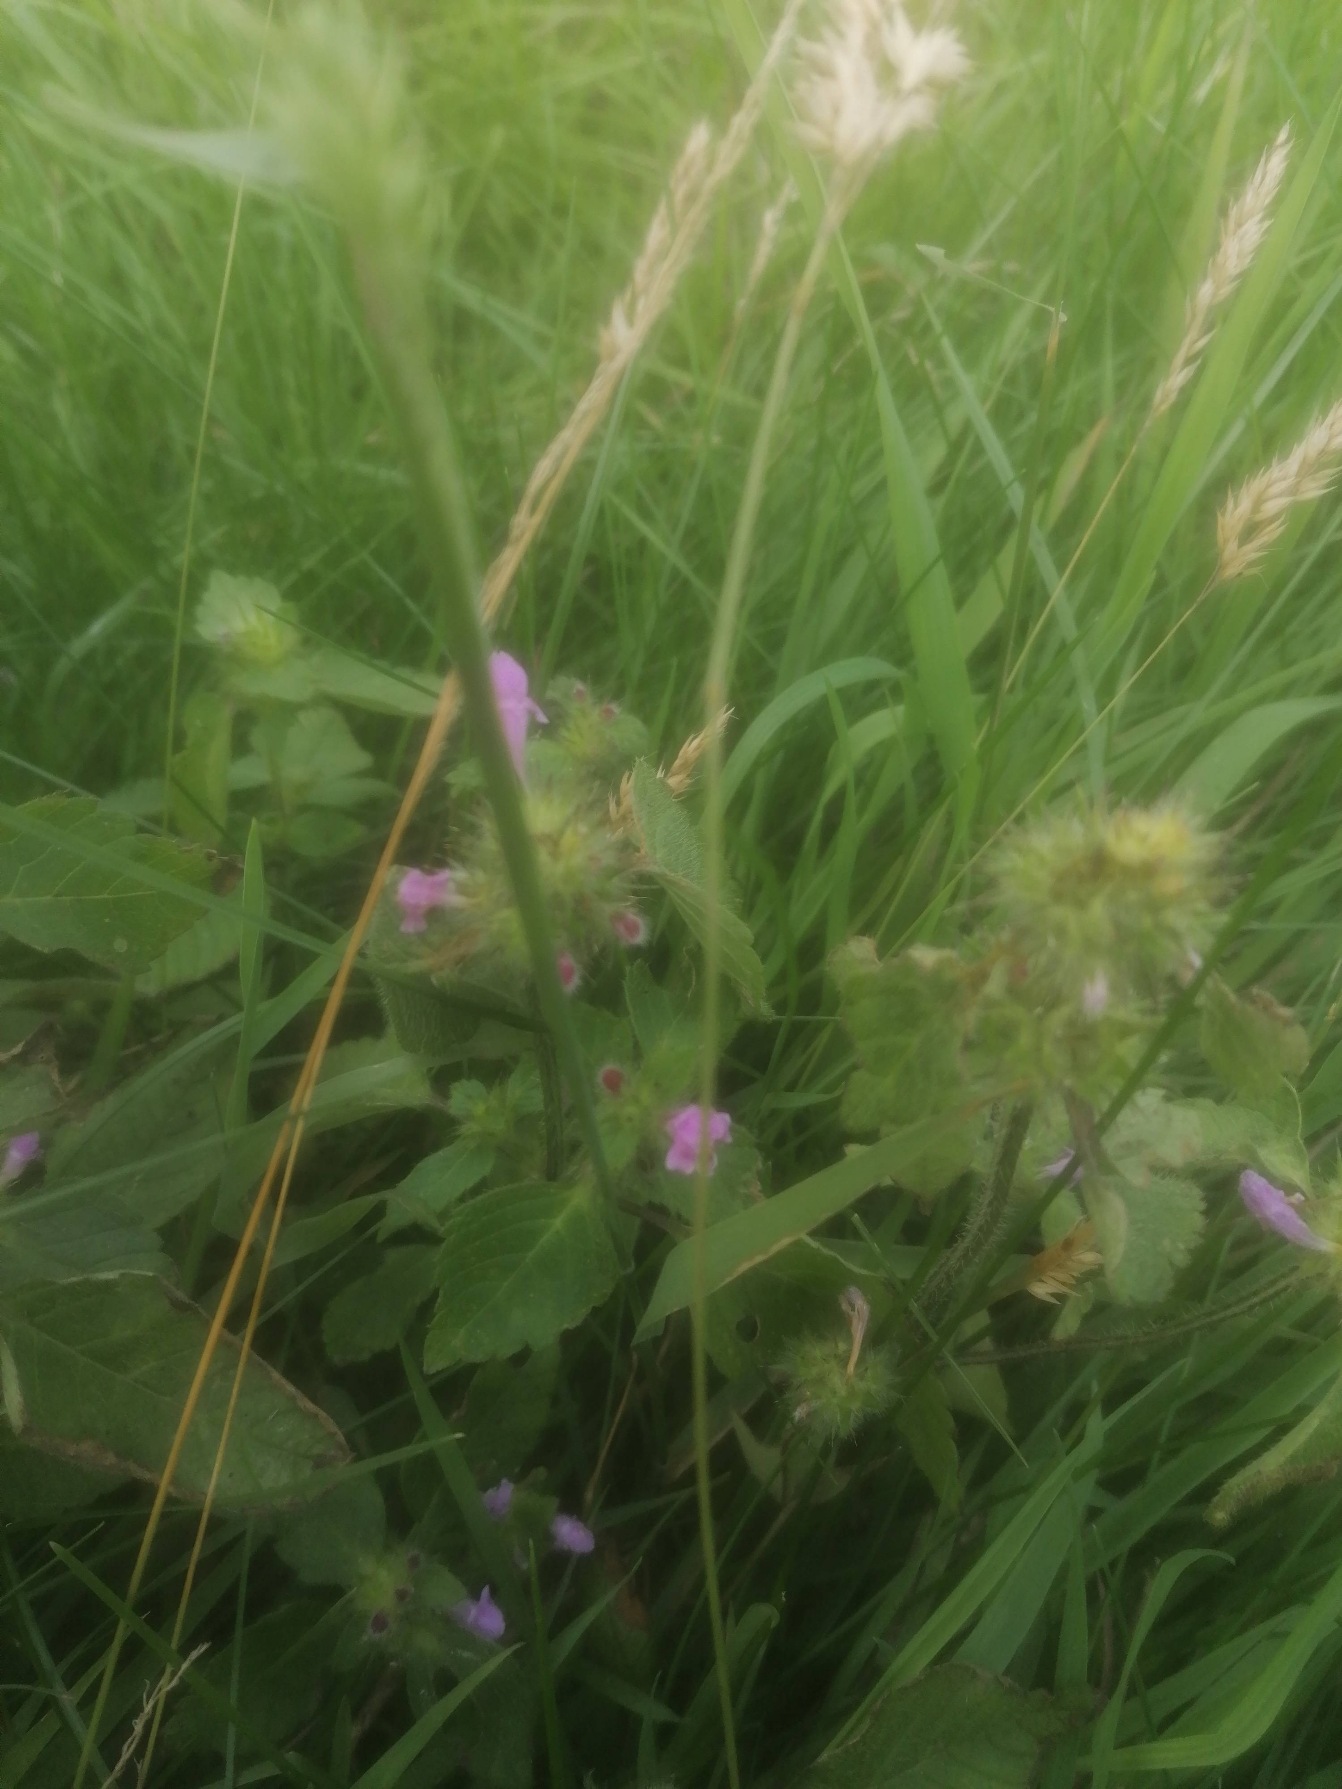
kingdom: Plantae
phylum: Tracheophyta
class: Magnoliopsida
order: Lamiales
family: Lamiaceae
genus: Galeopsis
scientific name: Galeopsis bifida
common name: Skov-hanekro
